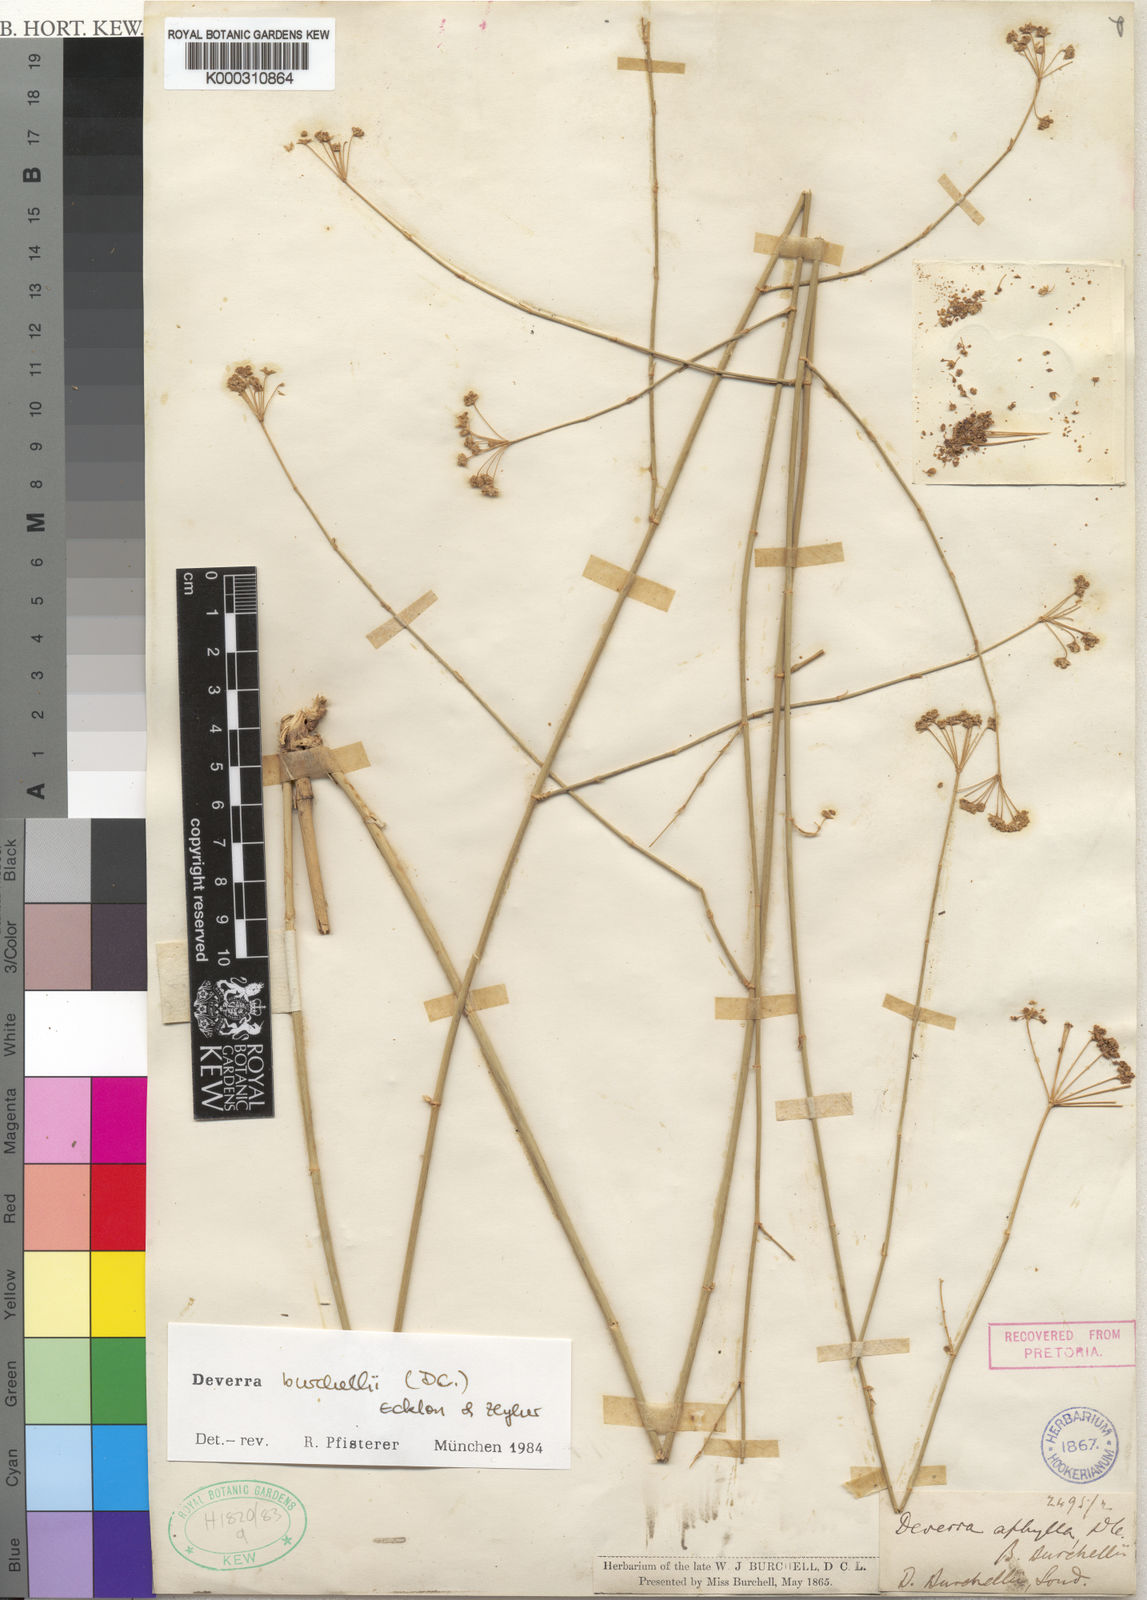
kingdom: Plantae
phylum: Tracheophyta
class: Magnoliopsida
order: Apiales
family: Apiaceae
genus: Deverra
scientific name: Deverra burchellii
